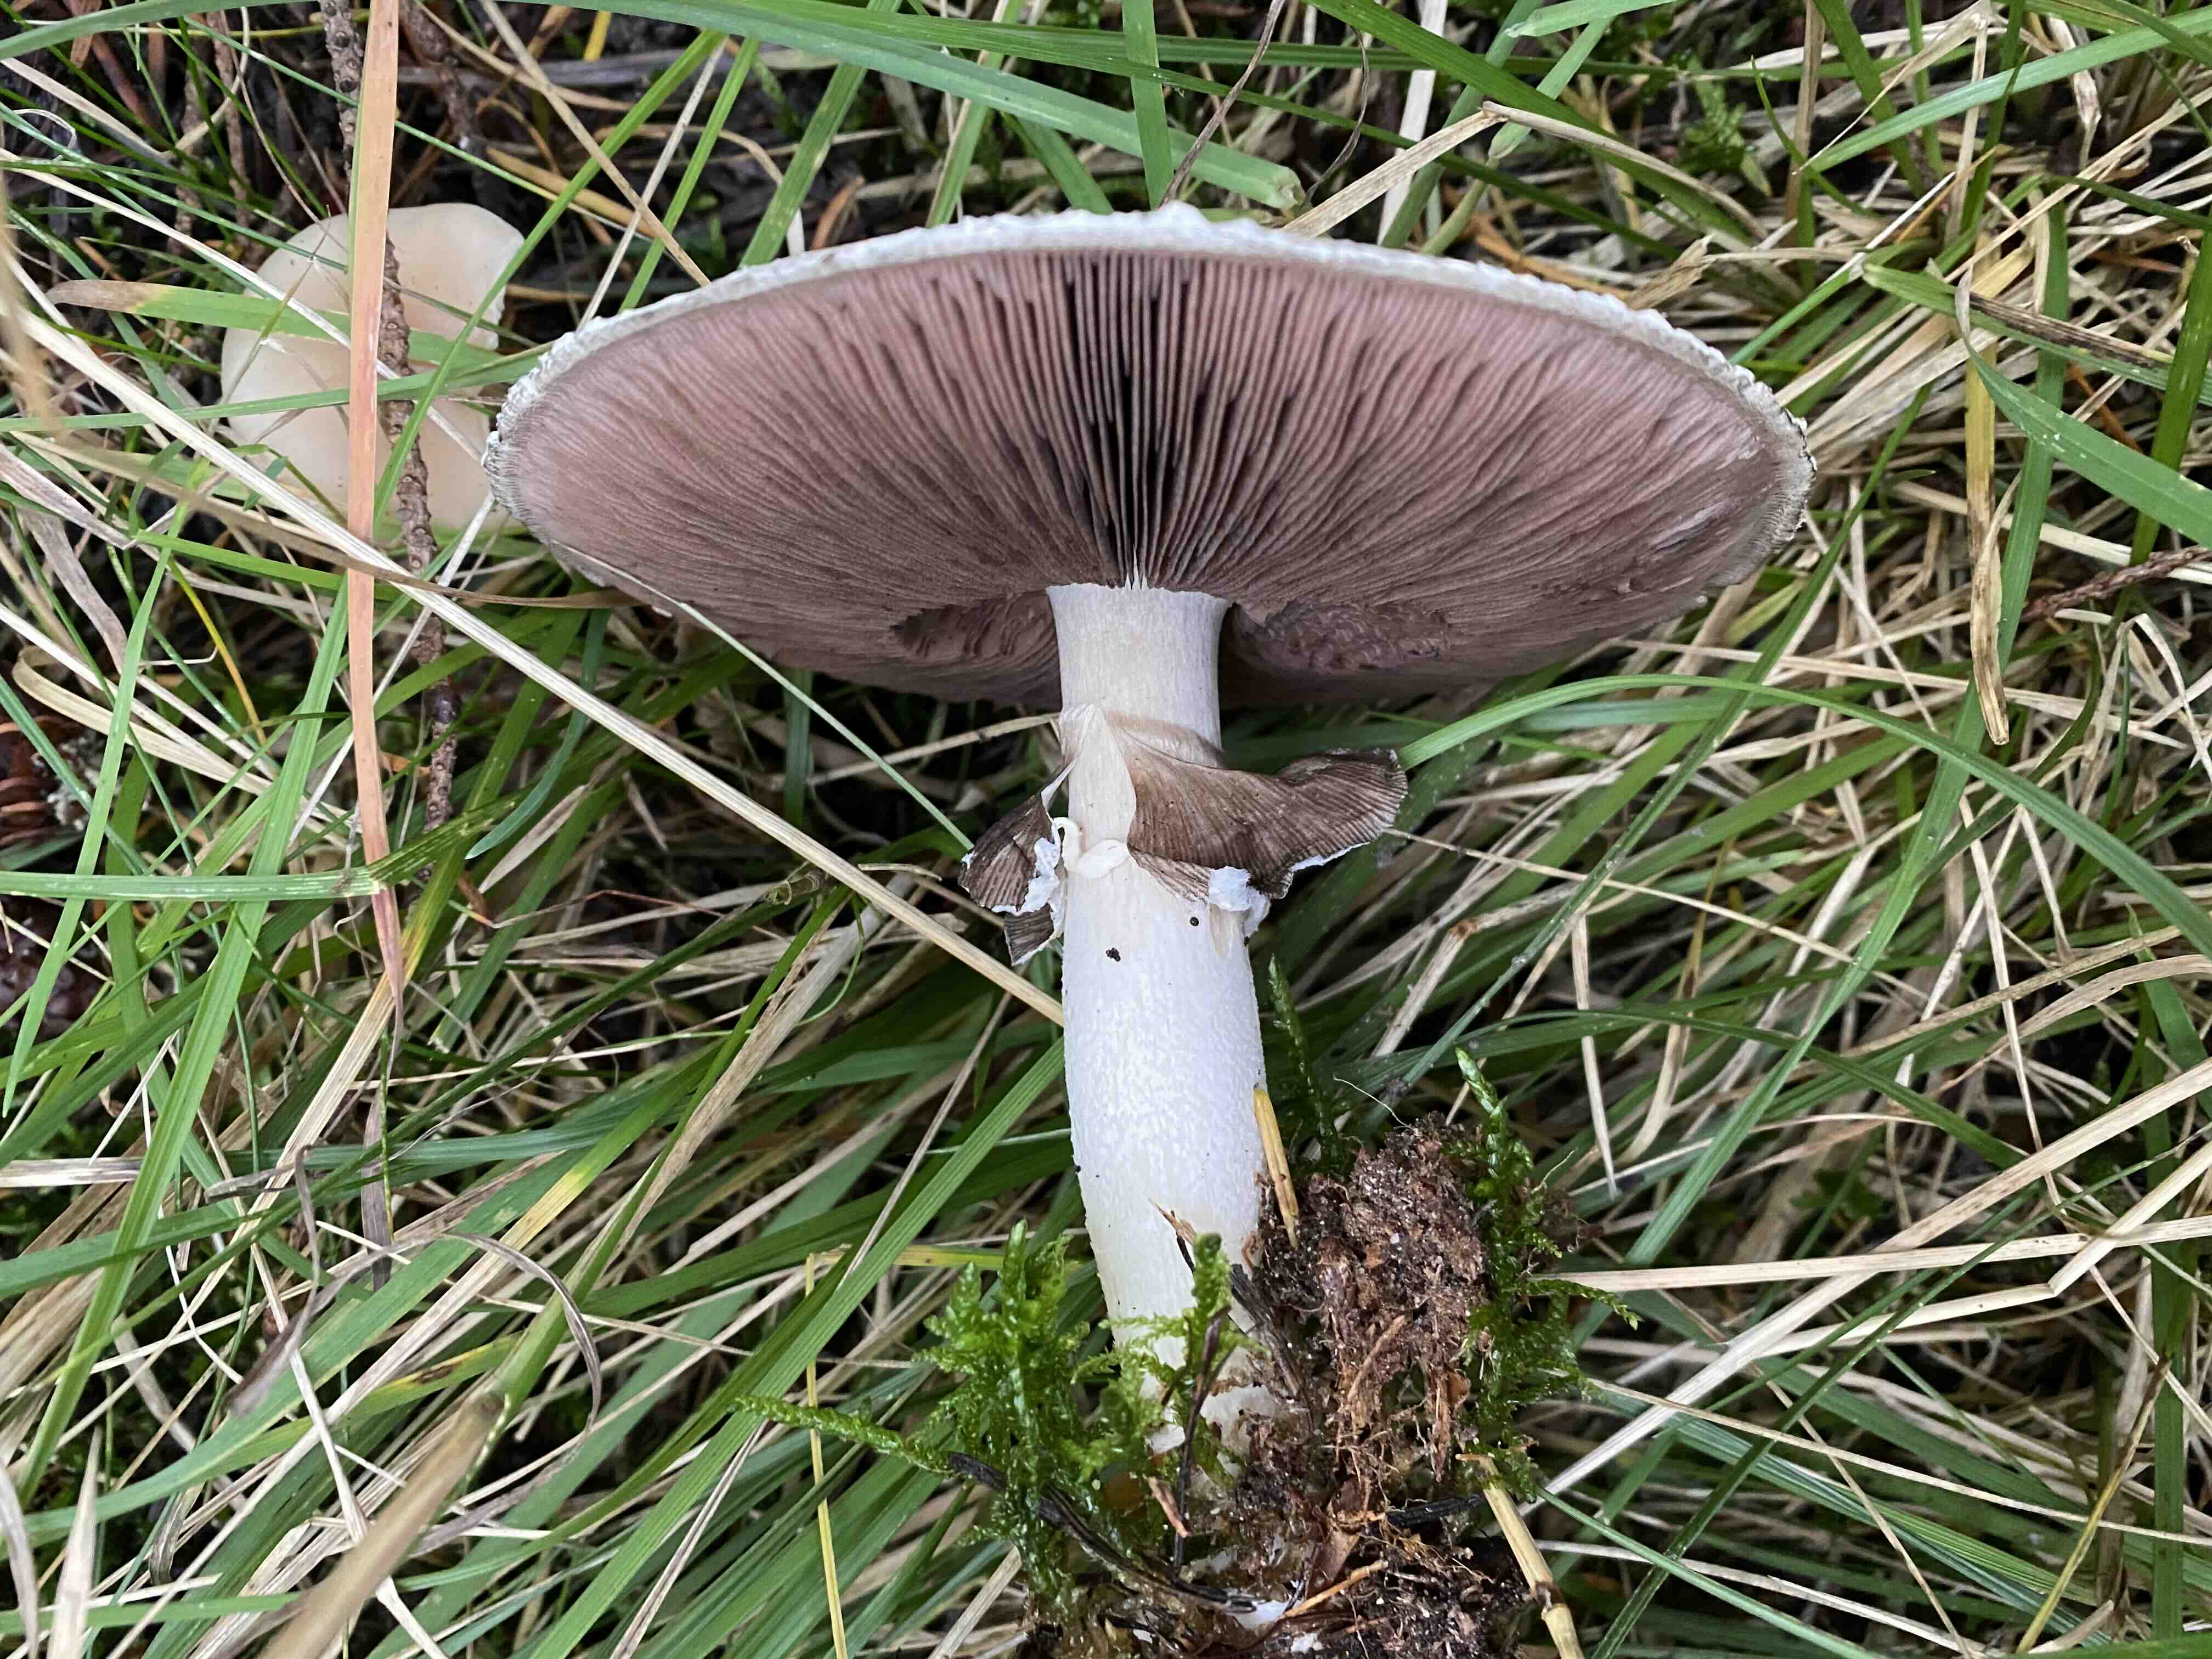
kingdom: Fungi
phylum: Basidiomycota
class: Agaricomycetes
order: Agaricales
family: Agaricaceae
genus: Agaricus
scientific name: Agaricus arvensis
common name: ager-champignon
